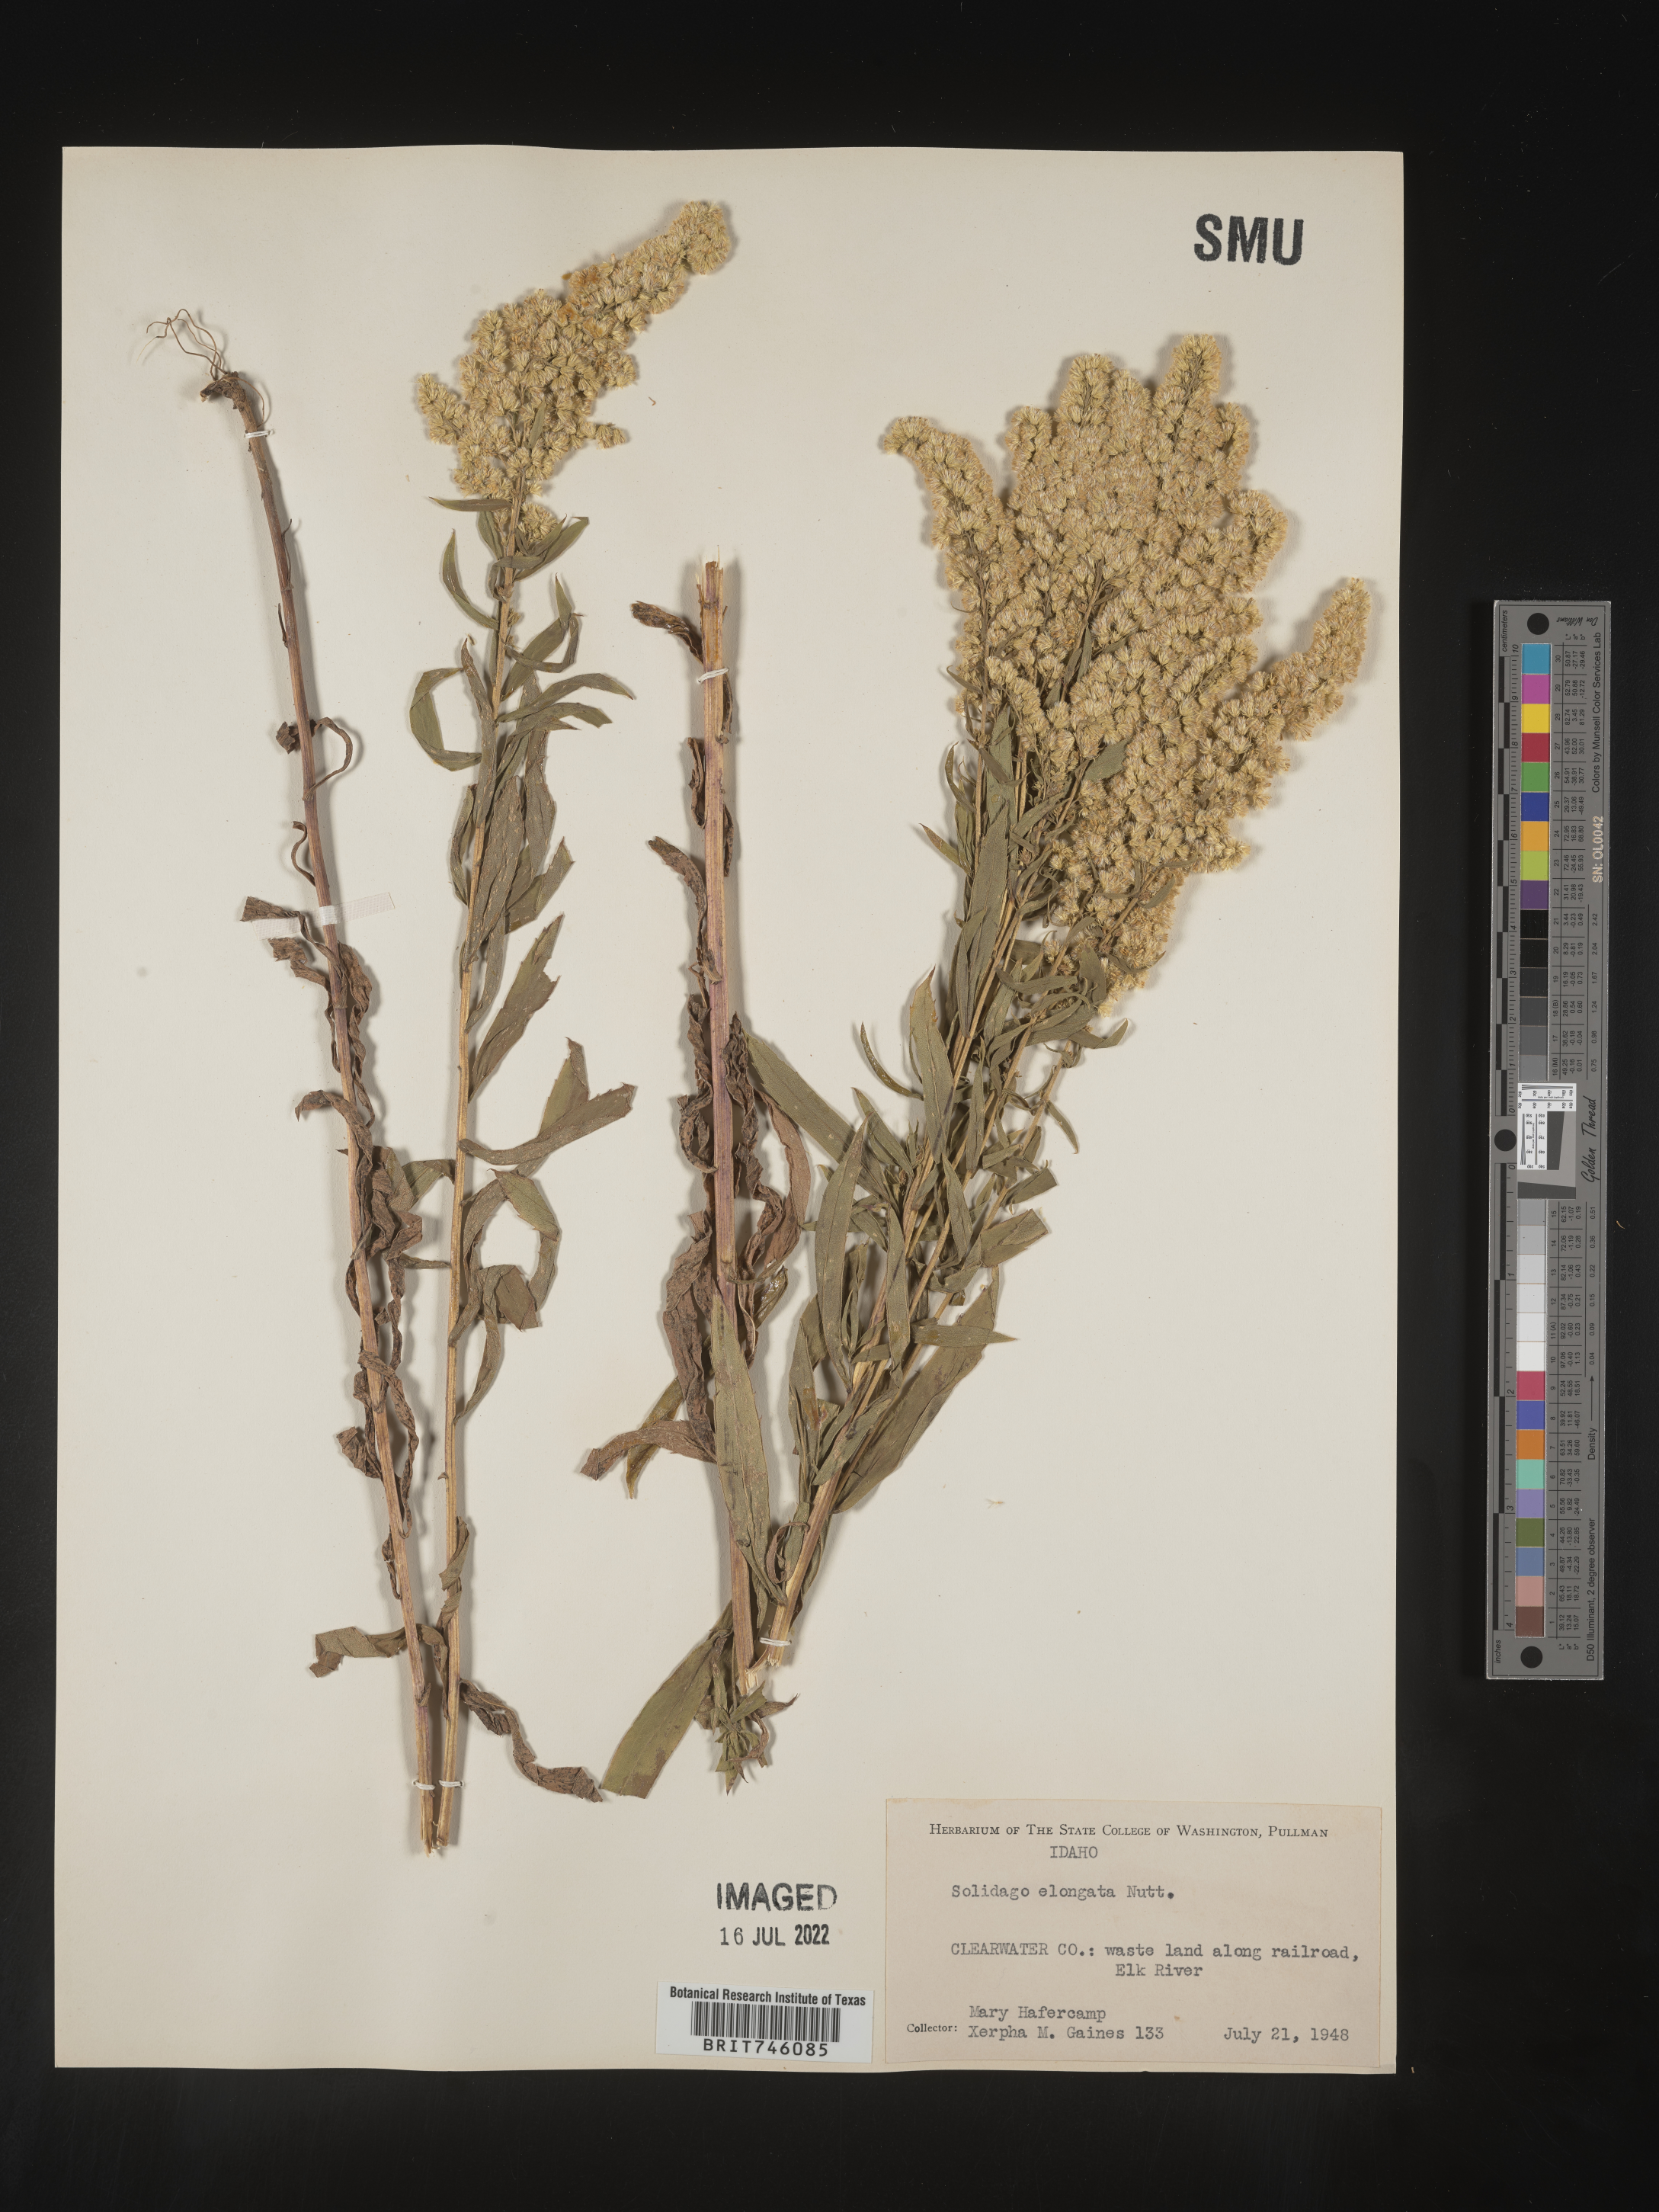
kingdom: Plantae
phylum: Tracheophyta
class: Magnoliopsida
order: Asterales
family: Asteraceae
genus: Solidago
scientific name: Solidago elongata
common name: Cascade canada goldenrod
